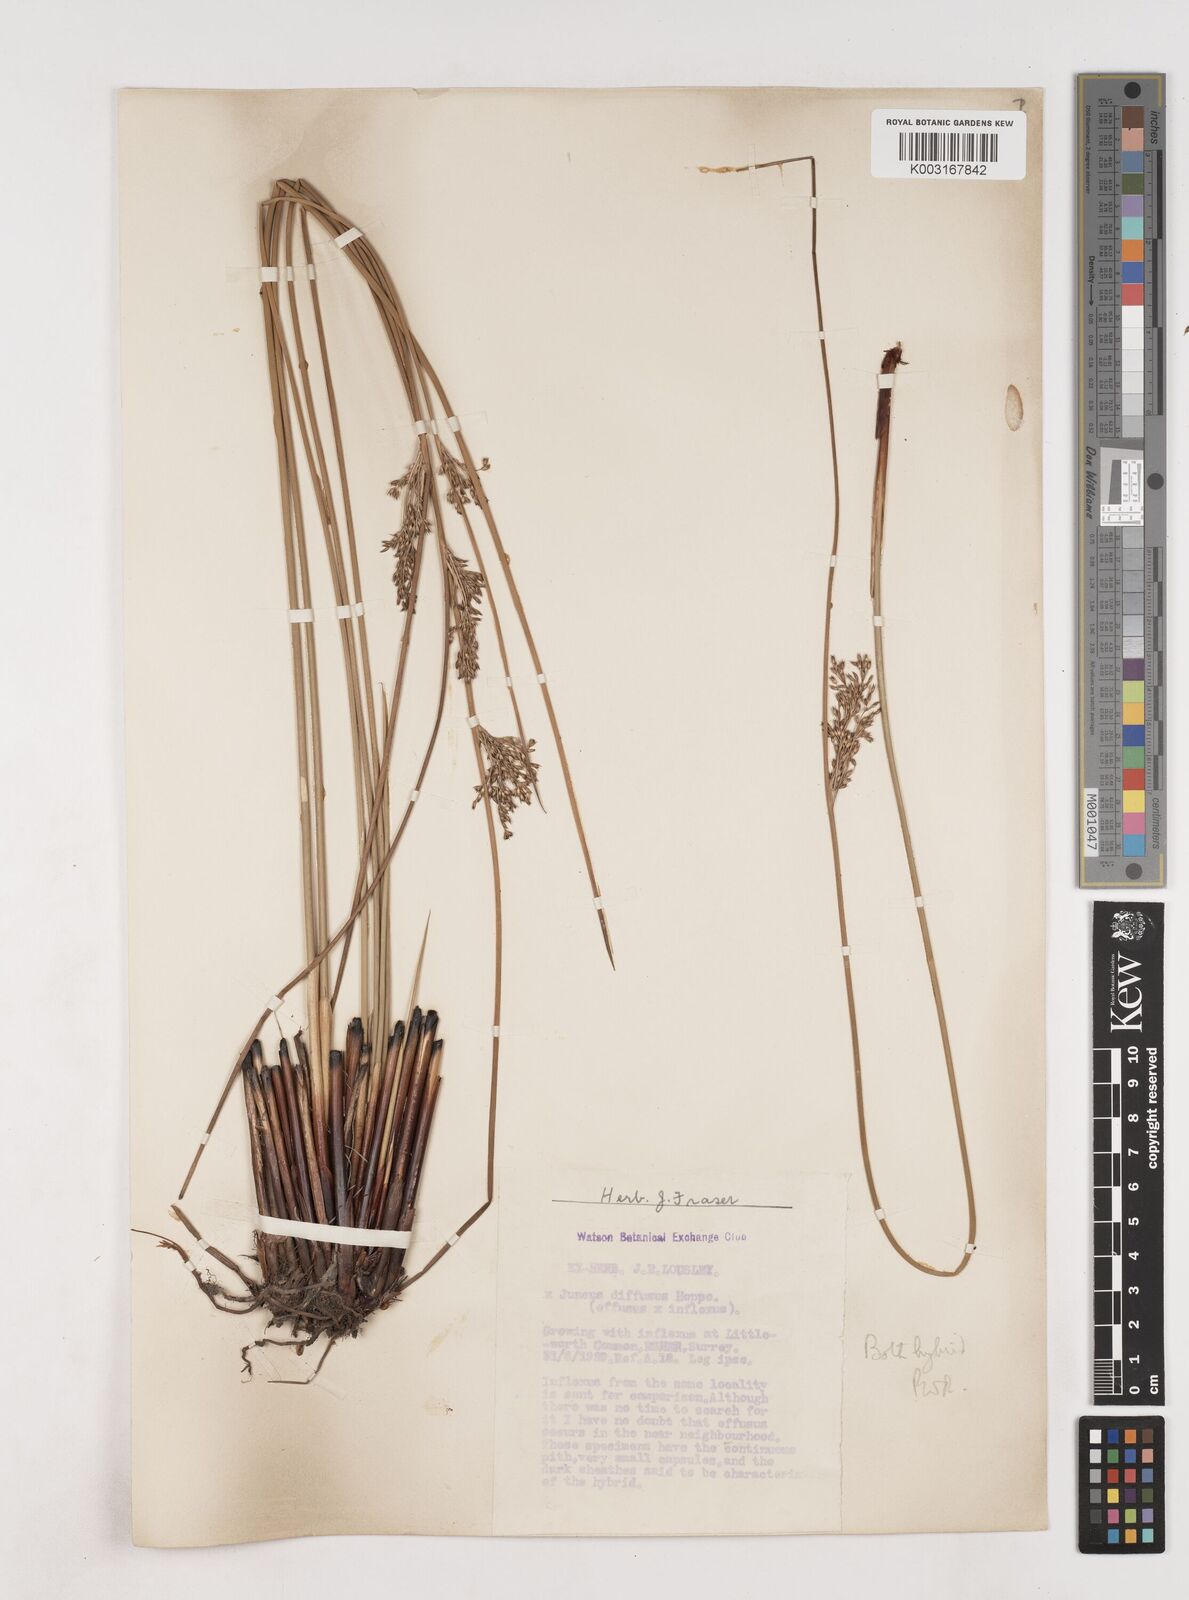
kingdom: Plantae
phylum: Tracheophyta
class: Liliopsida
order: Poales
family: Juncaceae
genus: Juncus
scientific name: Juncus effusus
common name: Soft rush
